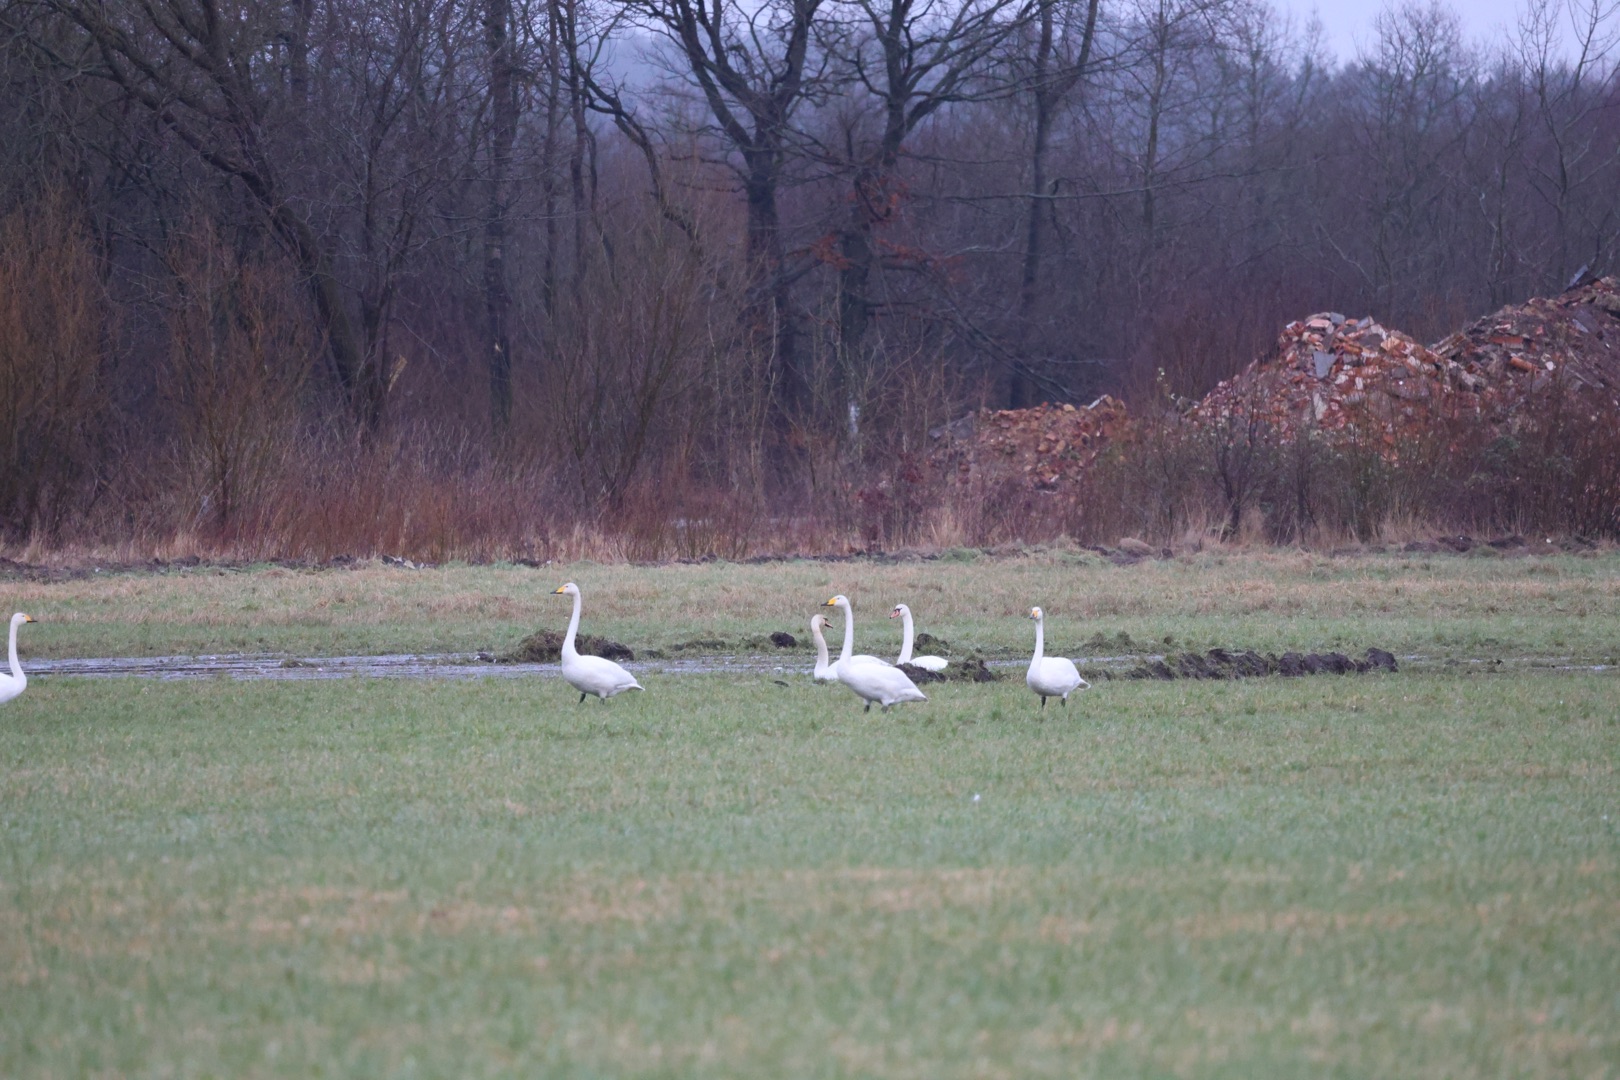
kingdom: Animalia
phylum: Chordata
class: Aves
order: Anseriformes
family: Anatidae
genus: Cygnus
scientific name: Cygnus cygnus
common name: Sangsvane
